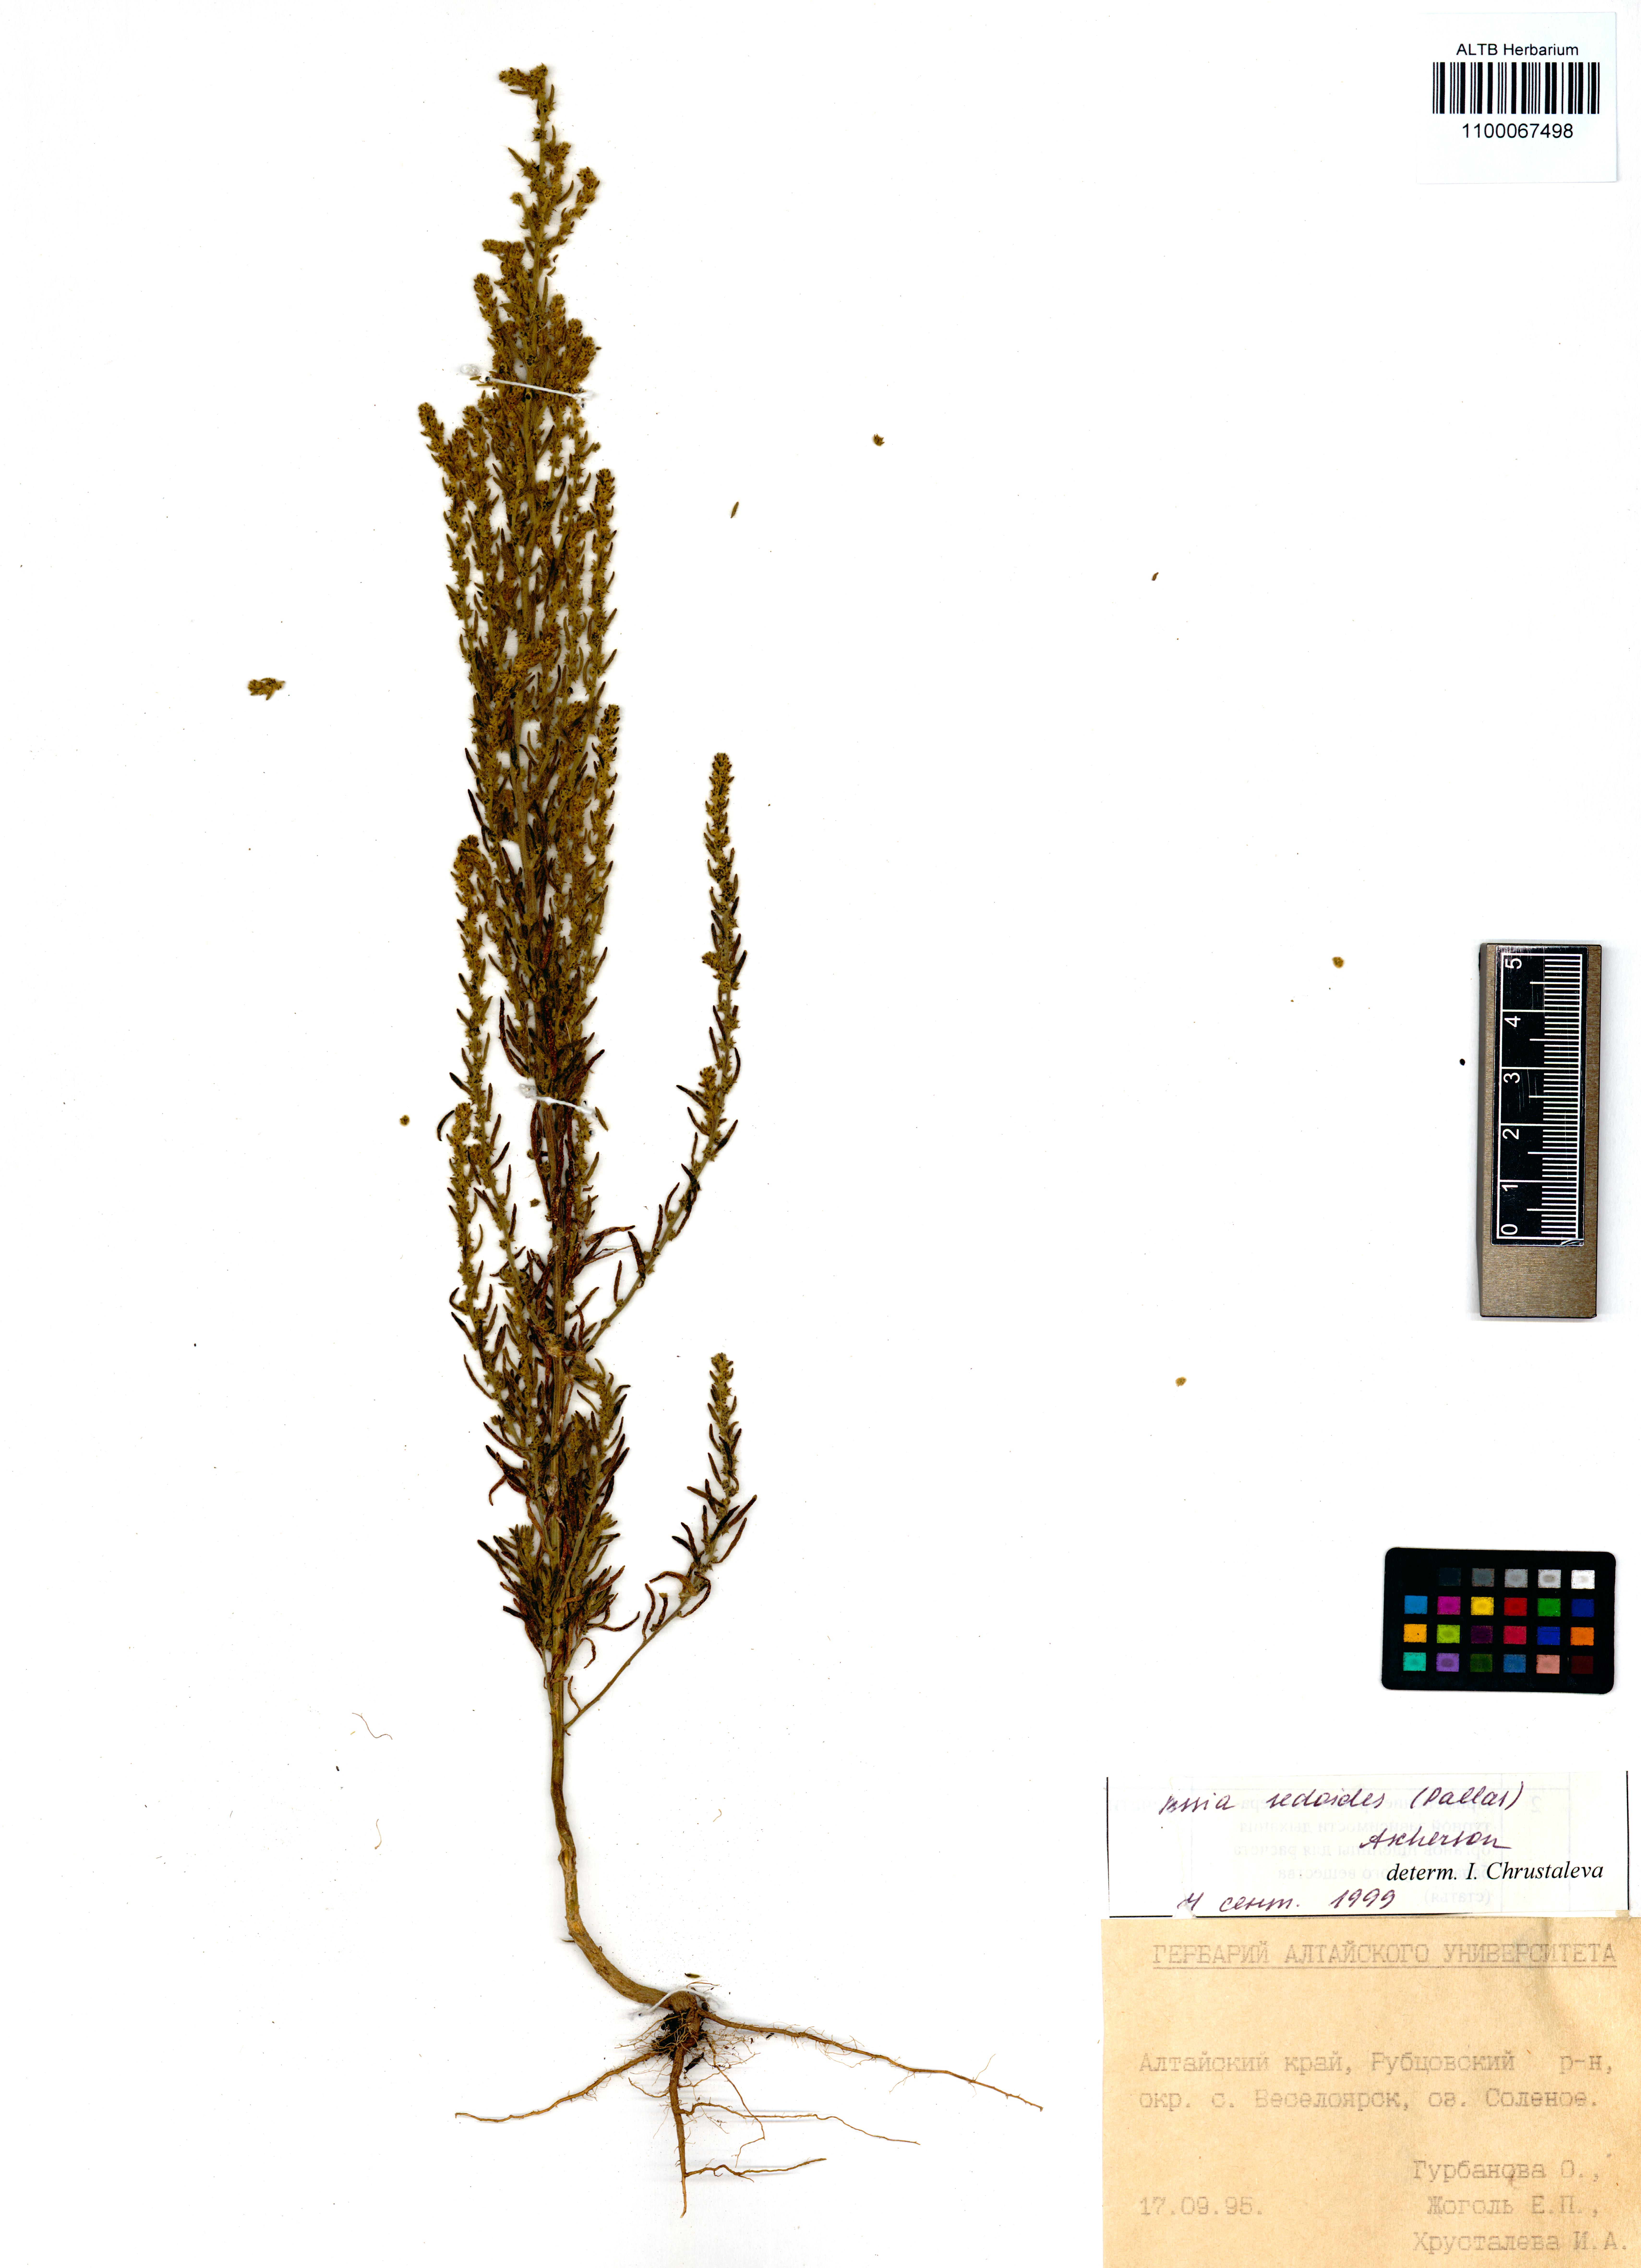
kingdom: Plantae
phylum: Tracheophyta
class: Magnoliopsida
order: Caryophyllales
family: Amaranthaceae
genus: Sedobassia
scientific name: Sedobassia sedoides
